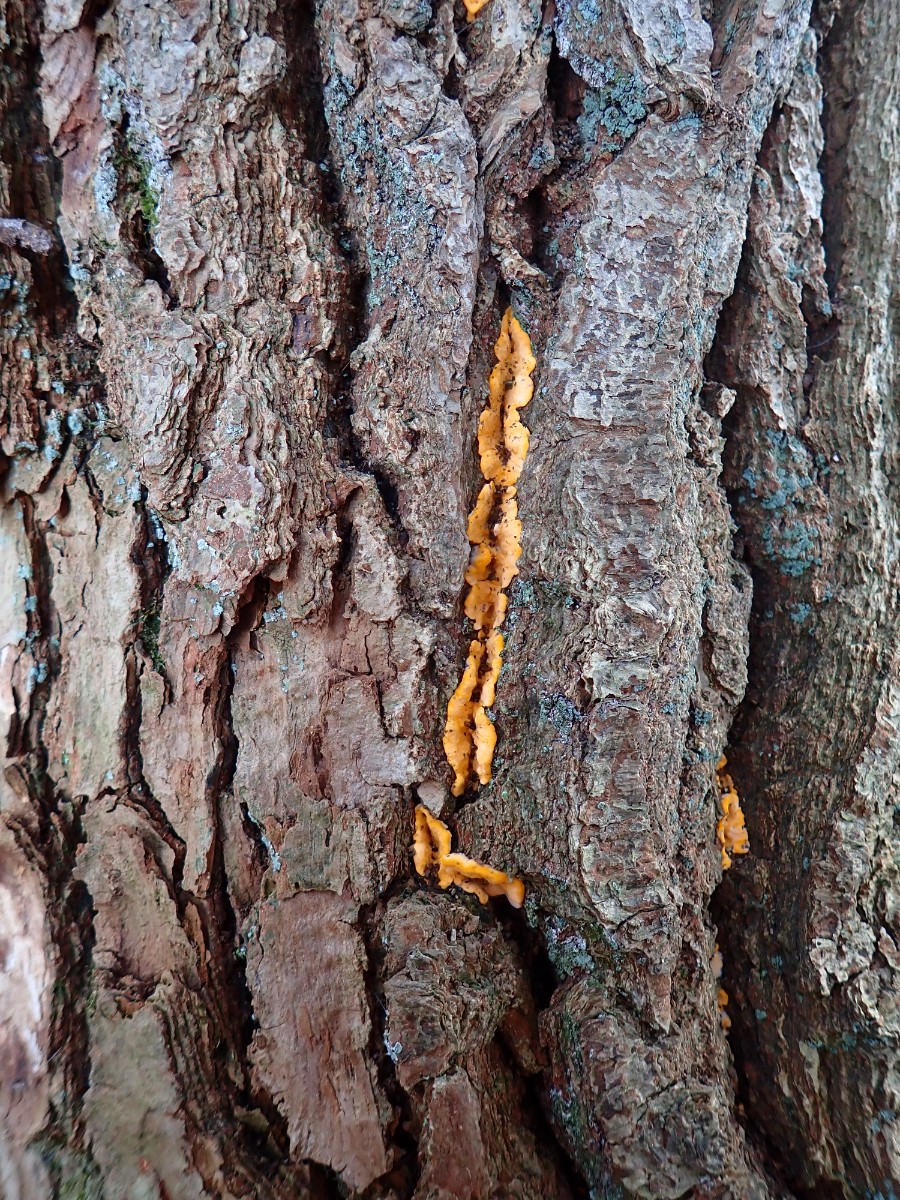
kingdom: Fungi
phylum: Basidiomycota
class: Agaricomycetes
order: Corticiales
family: Corticiaceae
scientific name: Corticiaceae
